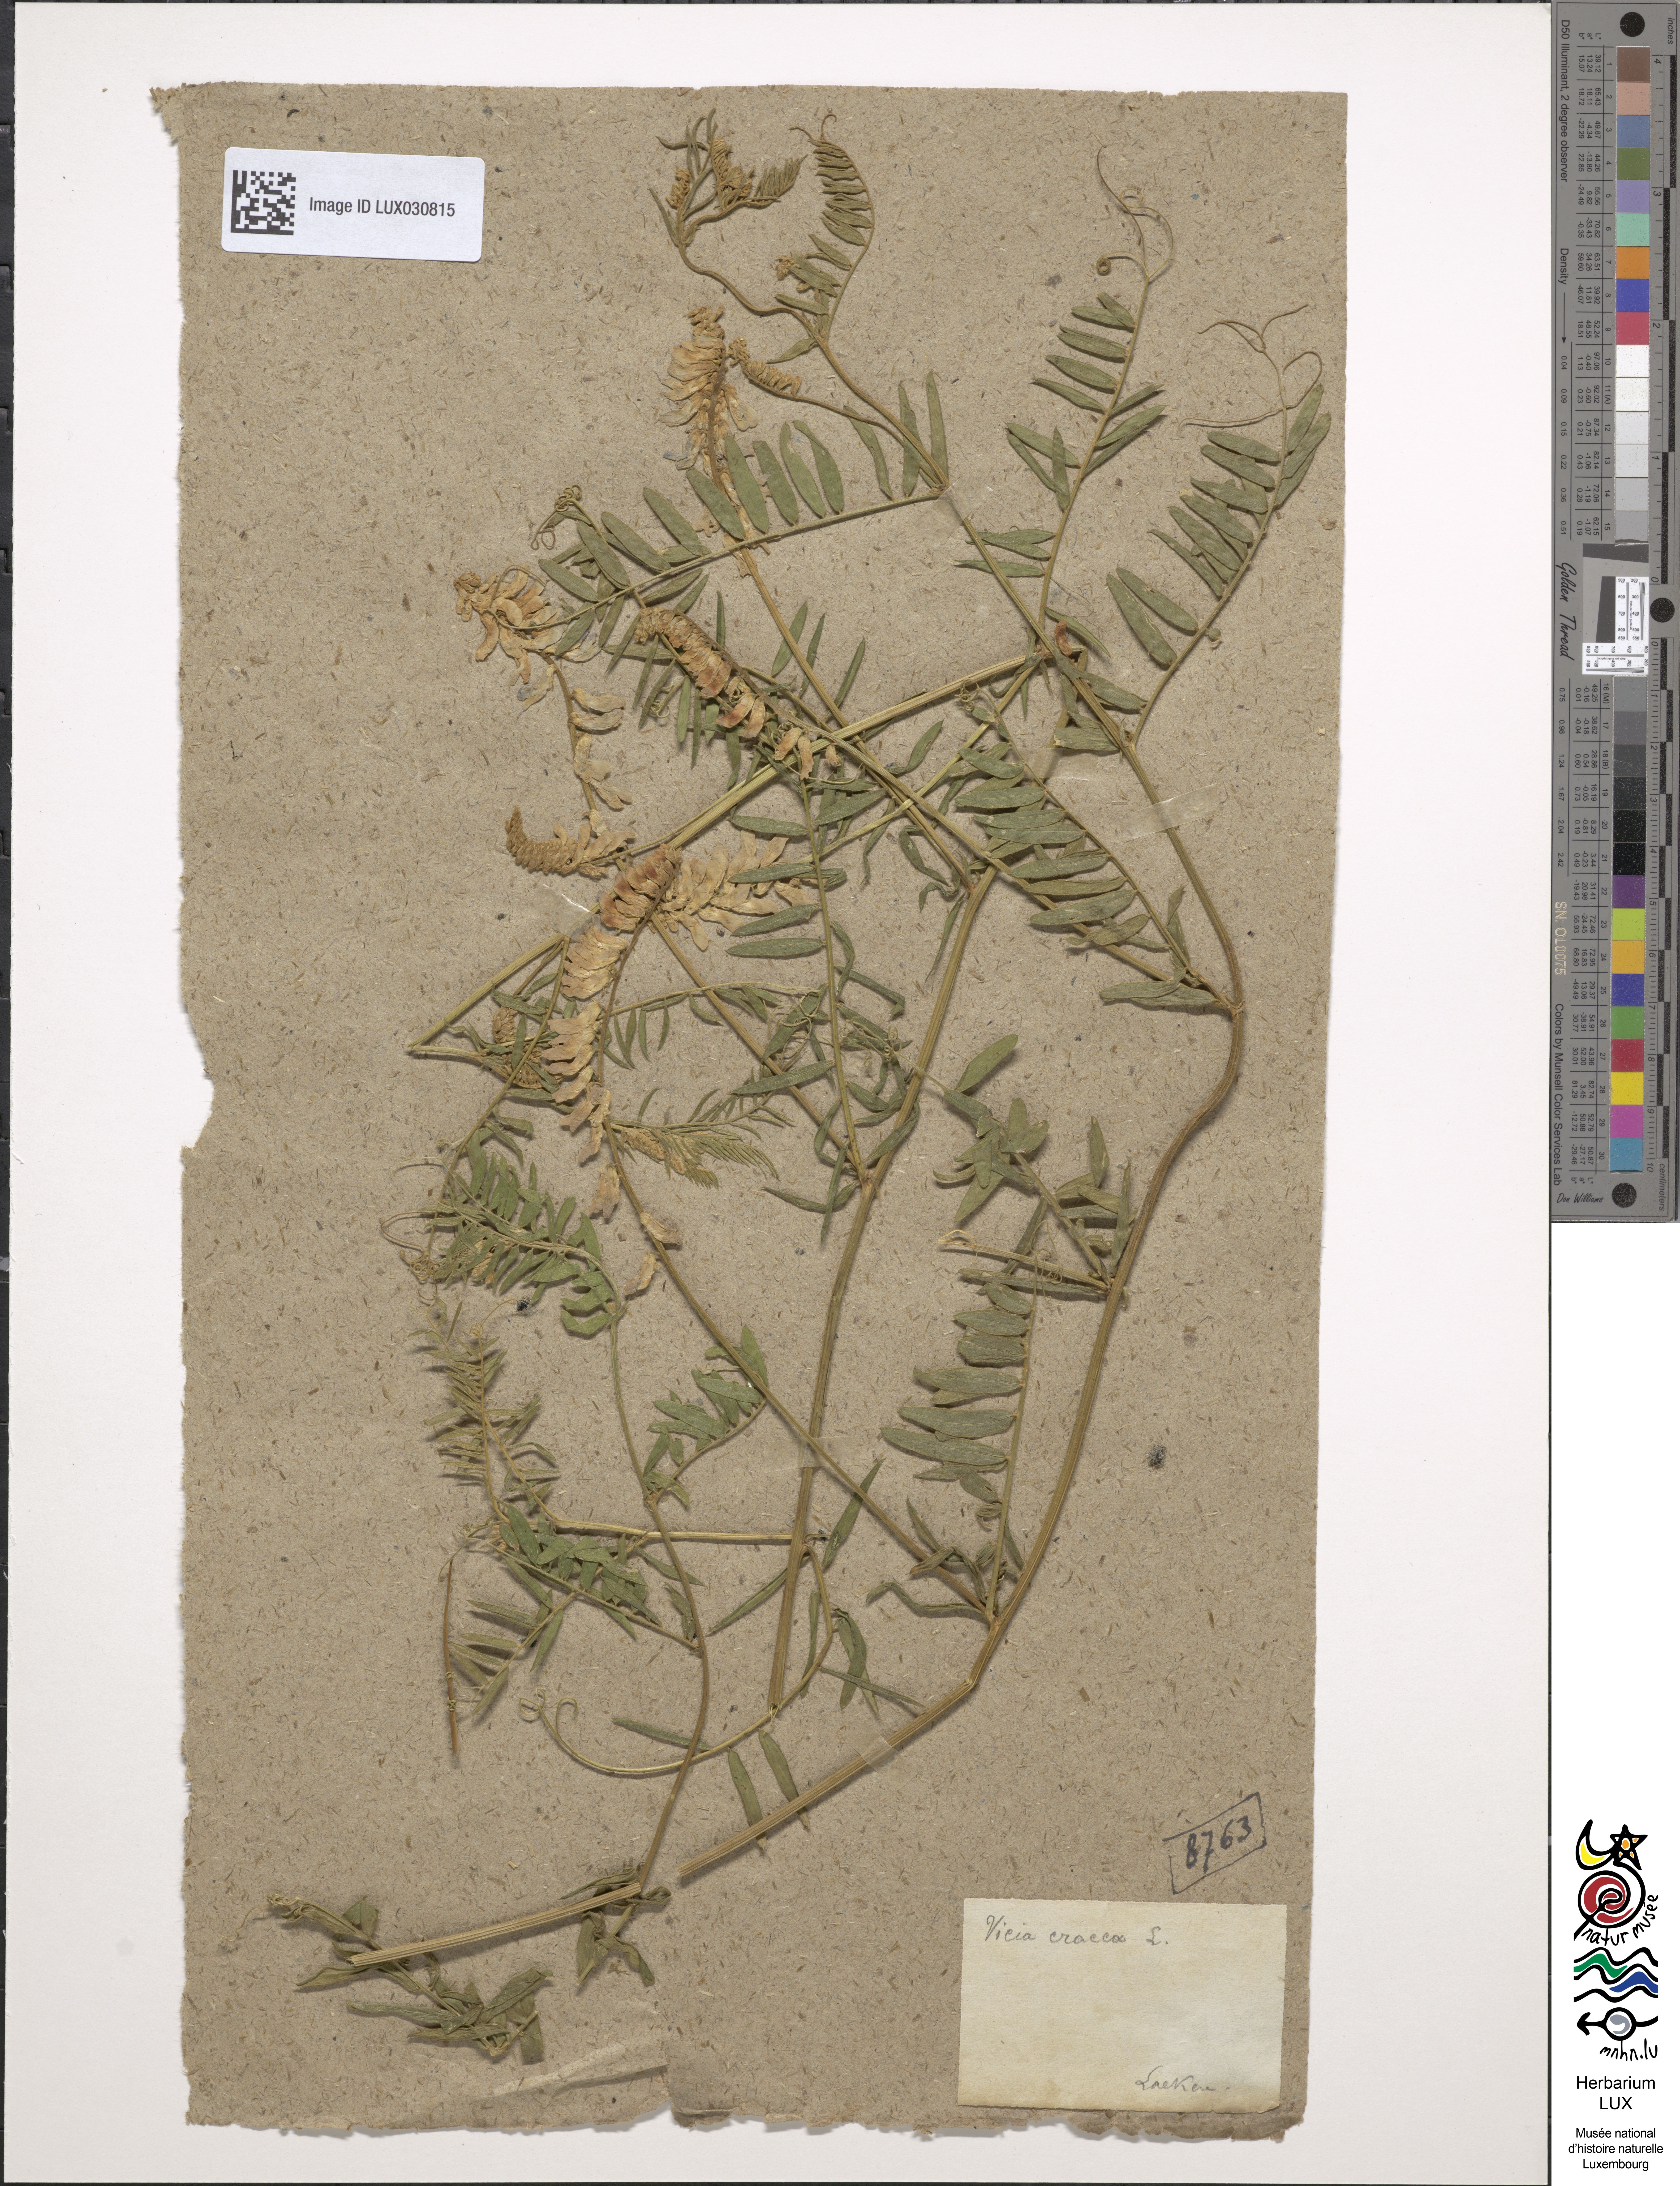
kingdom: Plantae
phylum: Tracheophyta
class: Magnoliopsida
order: Fabales
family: Fabaceae
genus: Vicia
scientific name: Vicia cracca
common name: Bird vetch
